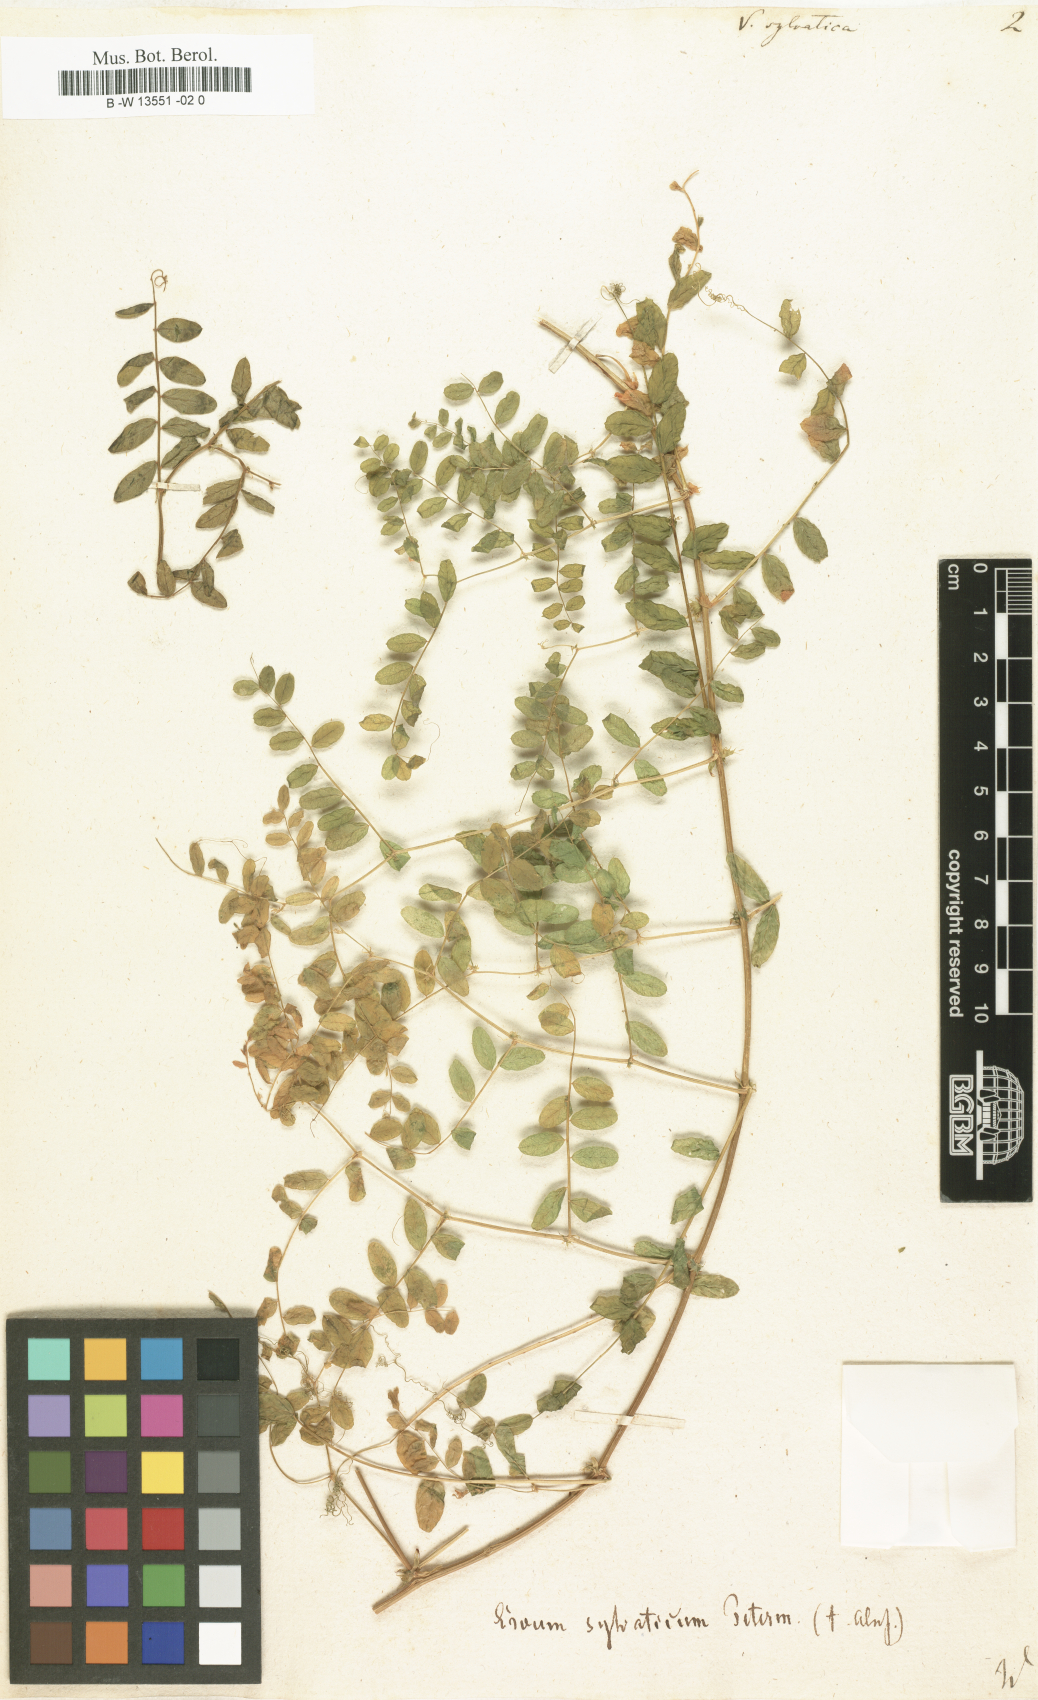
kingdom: Plantae
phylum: Tracheophyta
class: Magnoliopsida
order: Fabales
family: Fabaceae
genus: Vicia
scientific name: Vicia sylvatica
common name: Wood vetch
